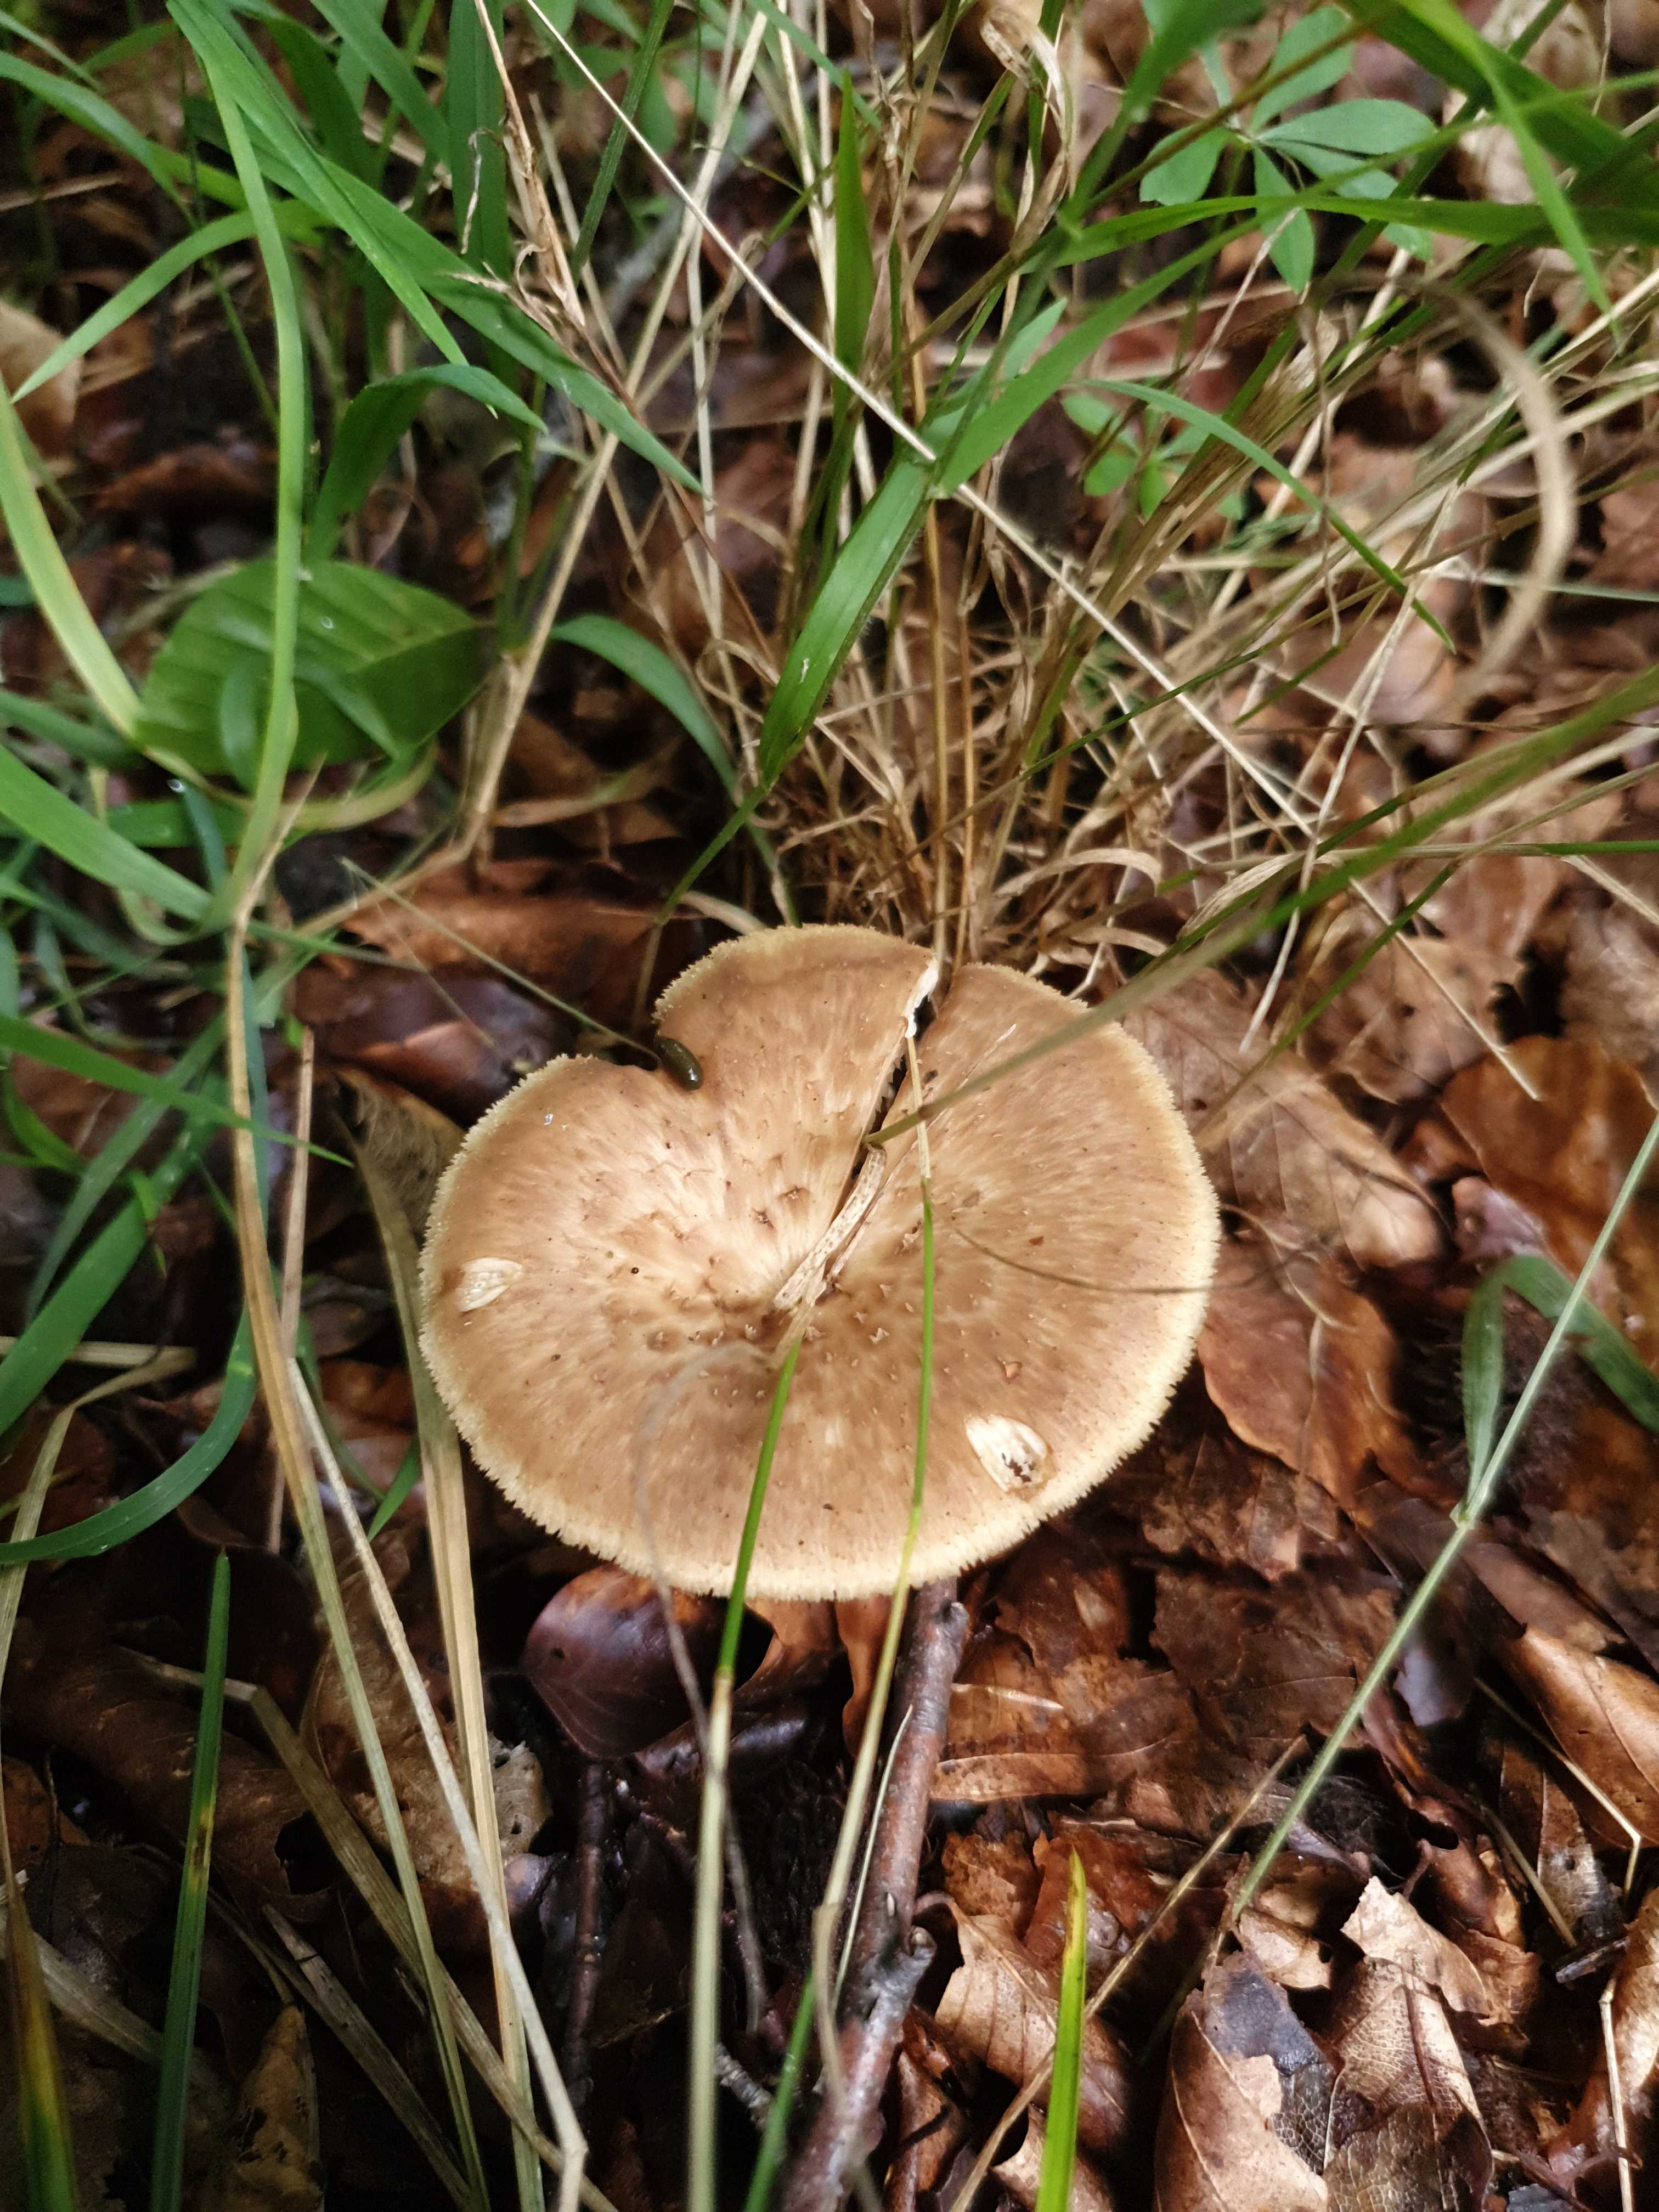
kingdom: Fungi
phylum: Basidiomycota
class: Agaricomycetes
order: Polyporales
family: Polyporaceae
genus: Polyporus
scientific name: Polyporus tuberaster
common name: knoldet stilkporesvamp
